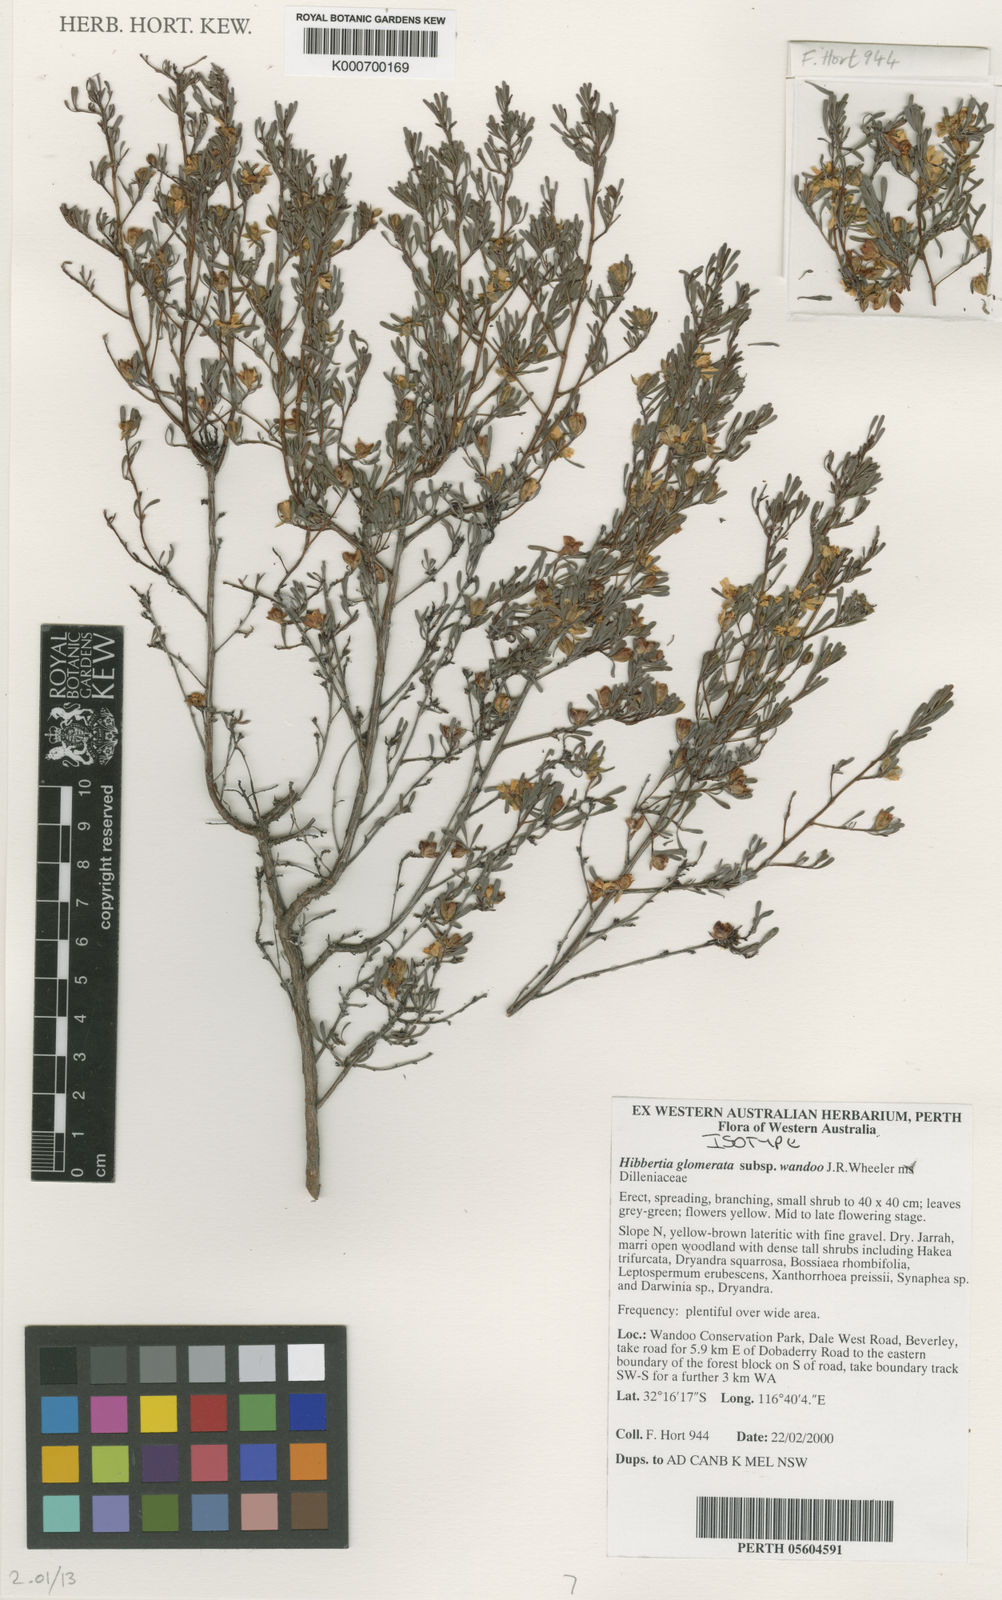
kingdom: Plantae
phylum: Tracheophyta
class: Magnoliopsida
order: Dilleniales
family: Dilleniaceae
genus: Hibbertia
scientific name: Hibbertia glomerata
